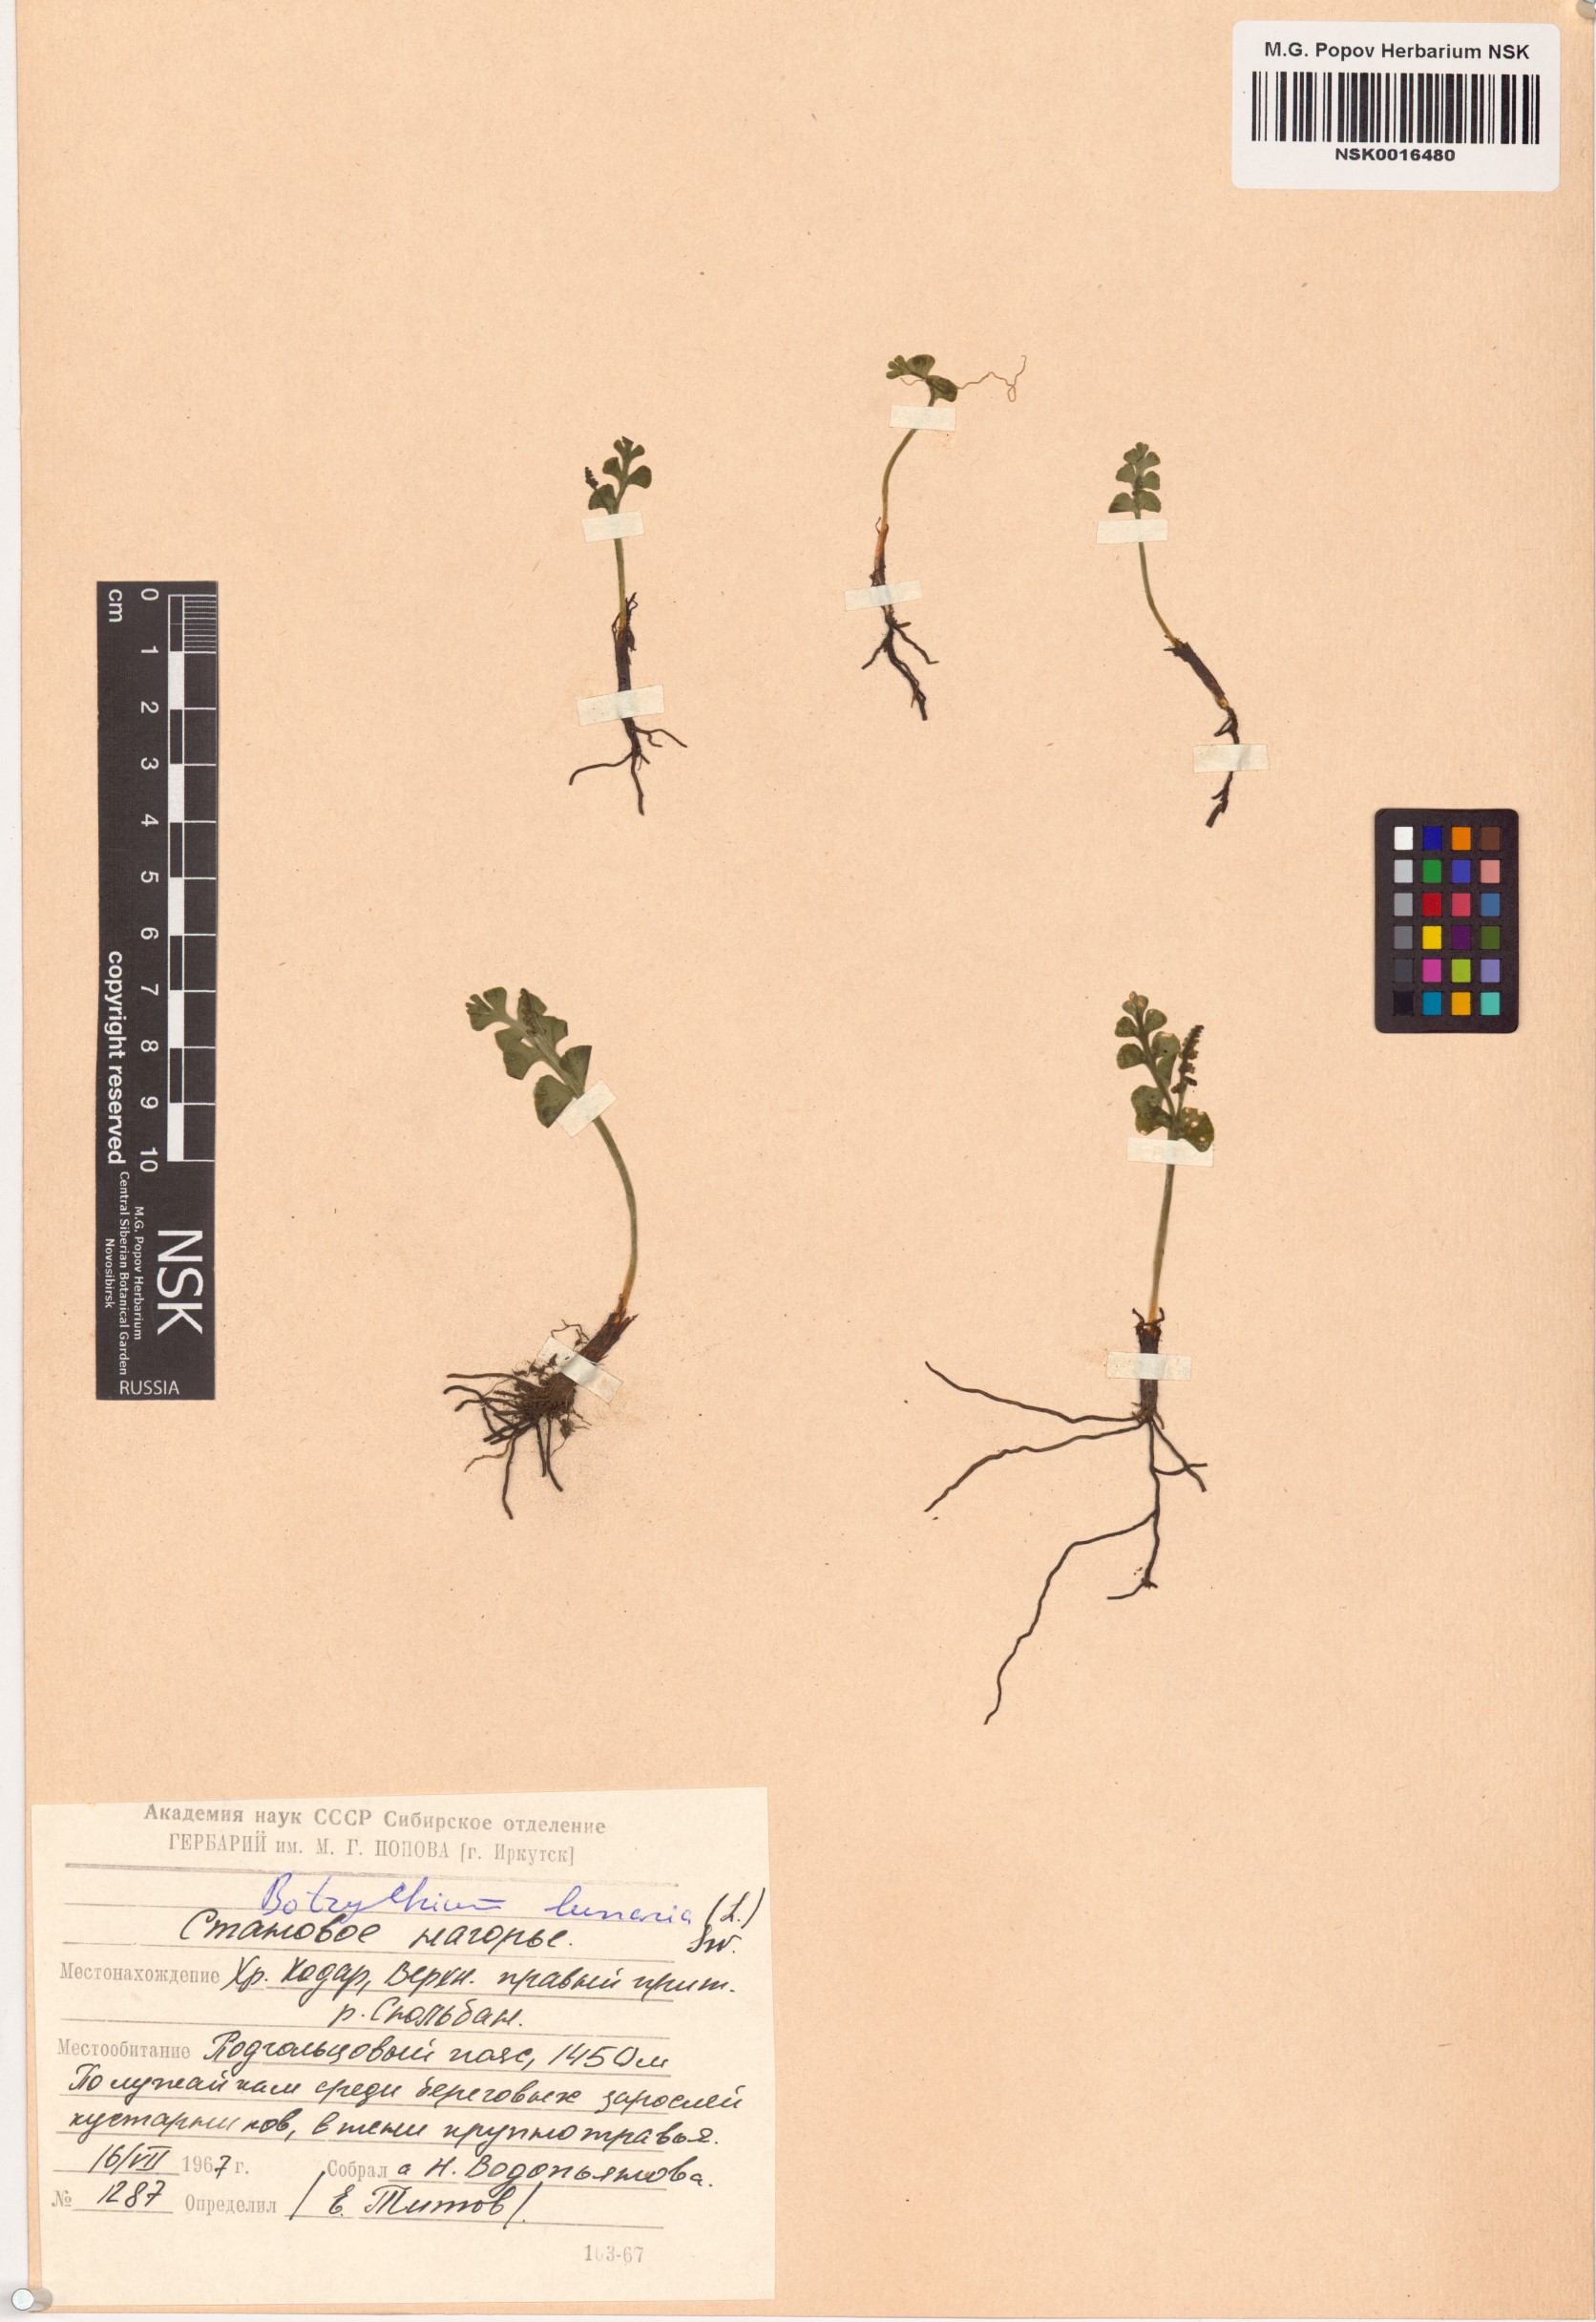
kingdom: Plantae
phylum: Tracheophyta
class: Polypodiopsida
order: Ophioglossales
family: Ophioglossaceae
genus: Botrychium
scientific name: Botrychium lunaria
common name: Moonwort
